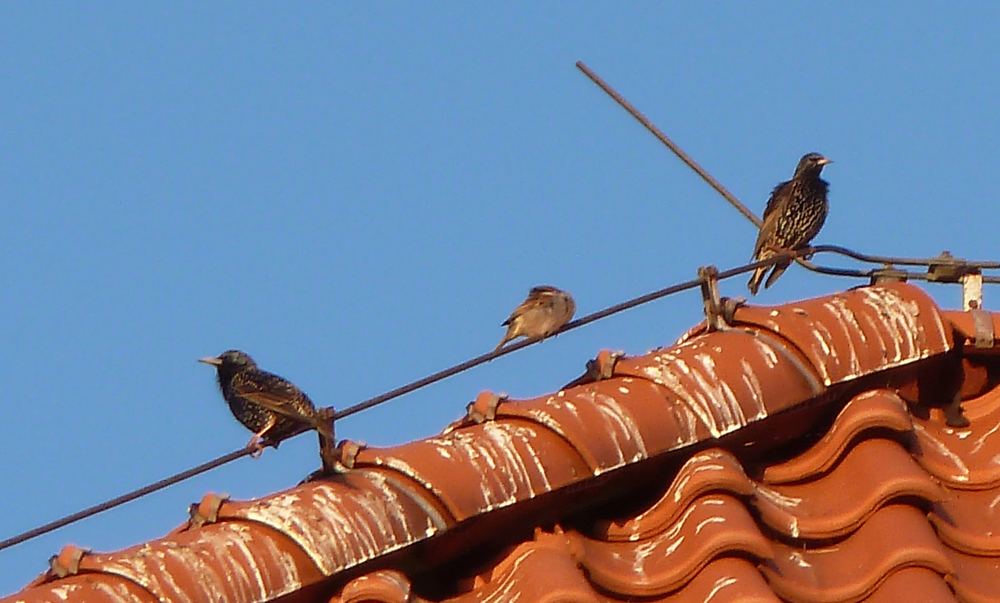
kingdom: Animalia
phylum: Chordata
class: Aves
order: Passeriformes
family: Sturnidae
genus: Sturnus
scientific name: Sturnus vulgaris
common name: Common starling
